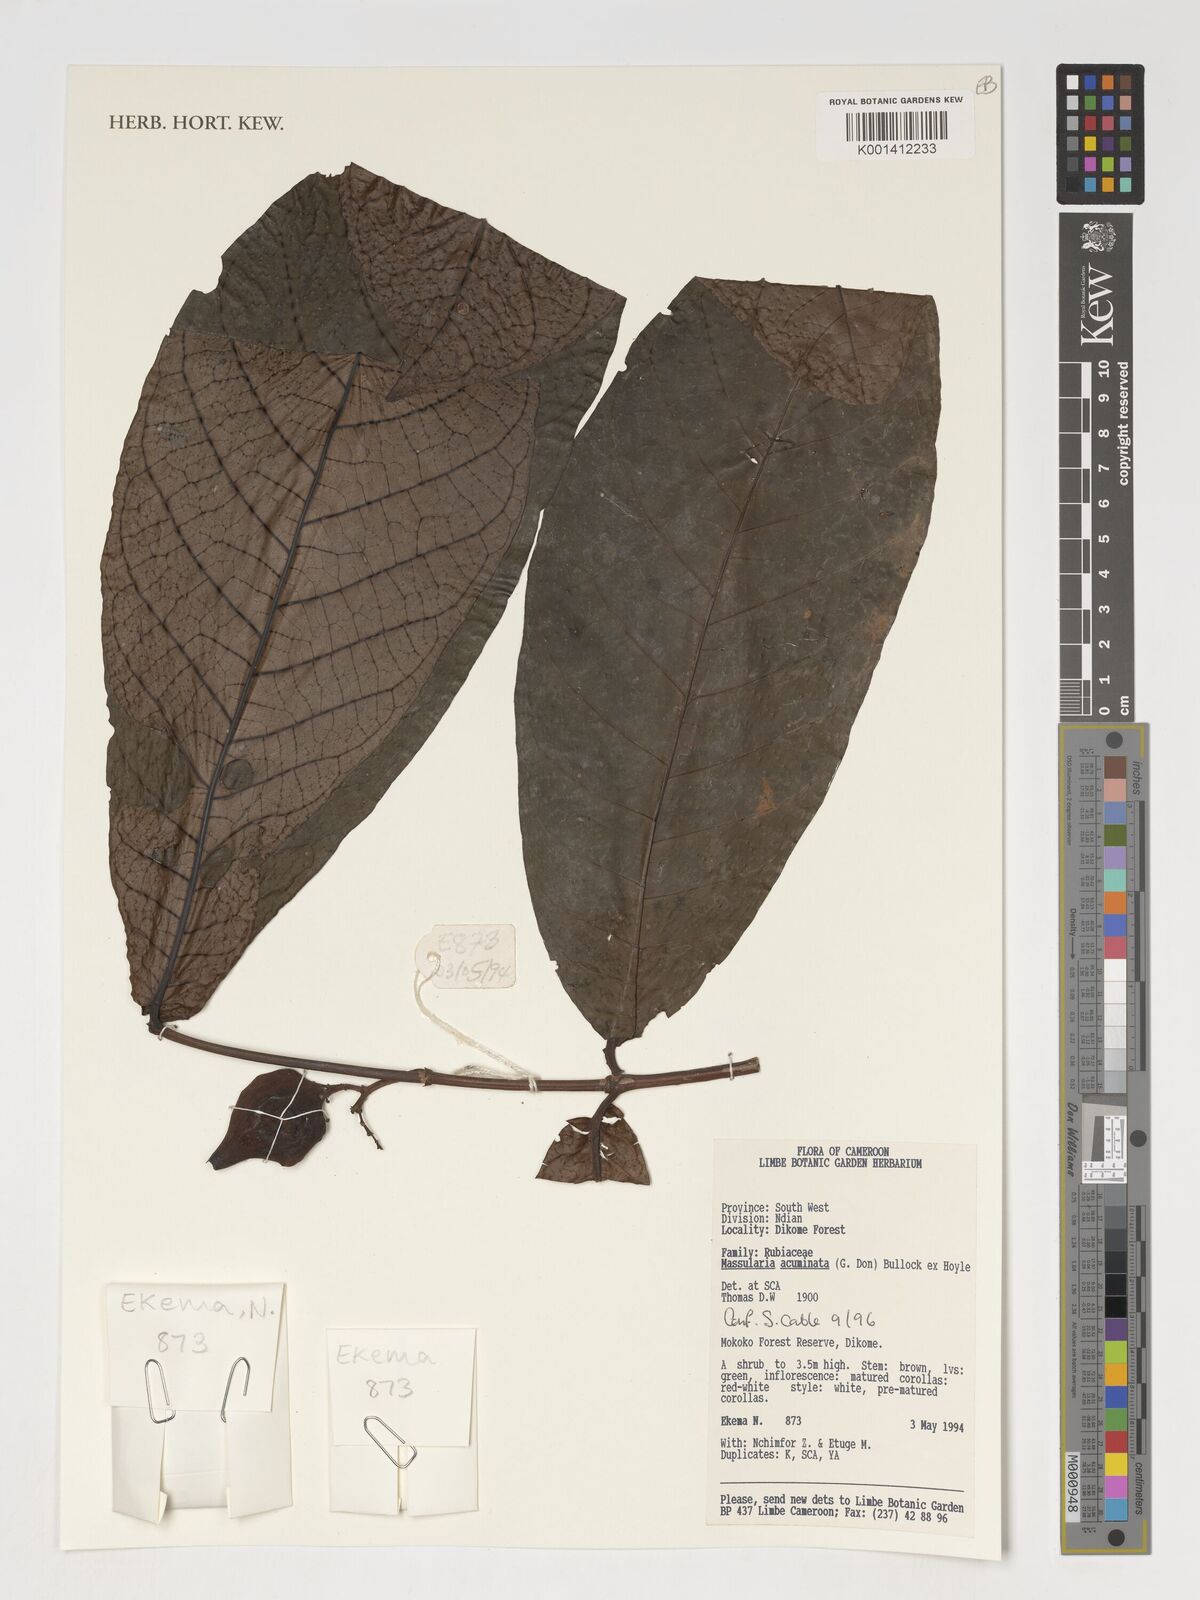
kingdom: Plantae
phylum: Tracheophyta
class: Magnoliopsida
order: Gentianales
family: Rubiaceae
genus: Massularia
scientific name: Massularia acuminata
